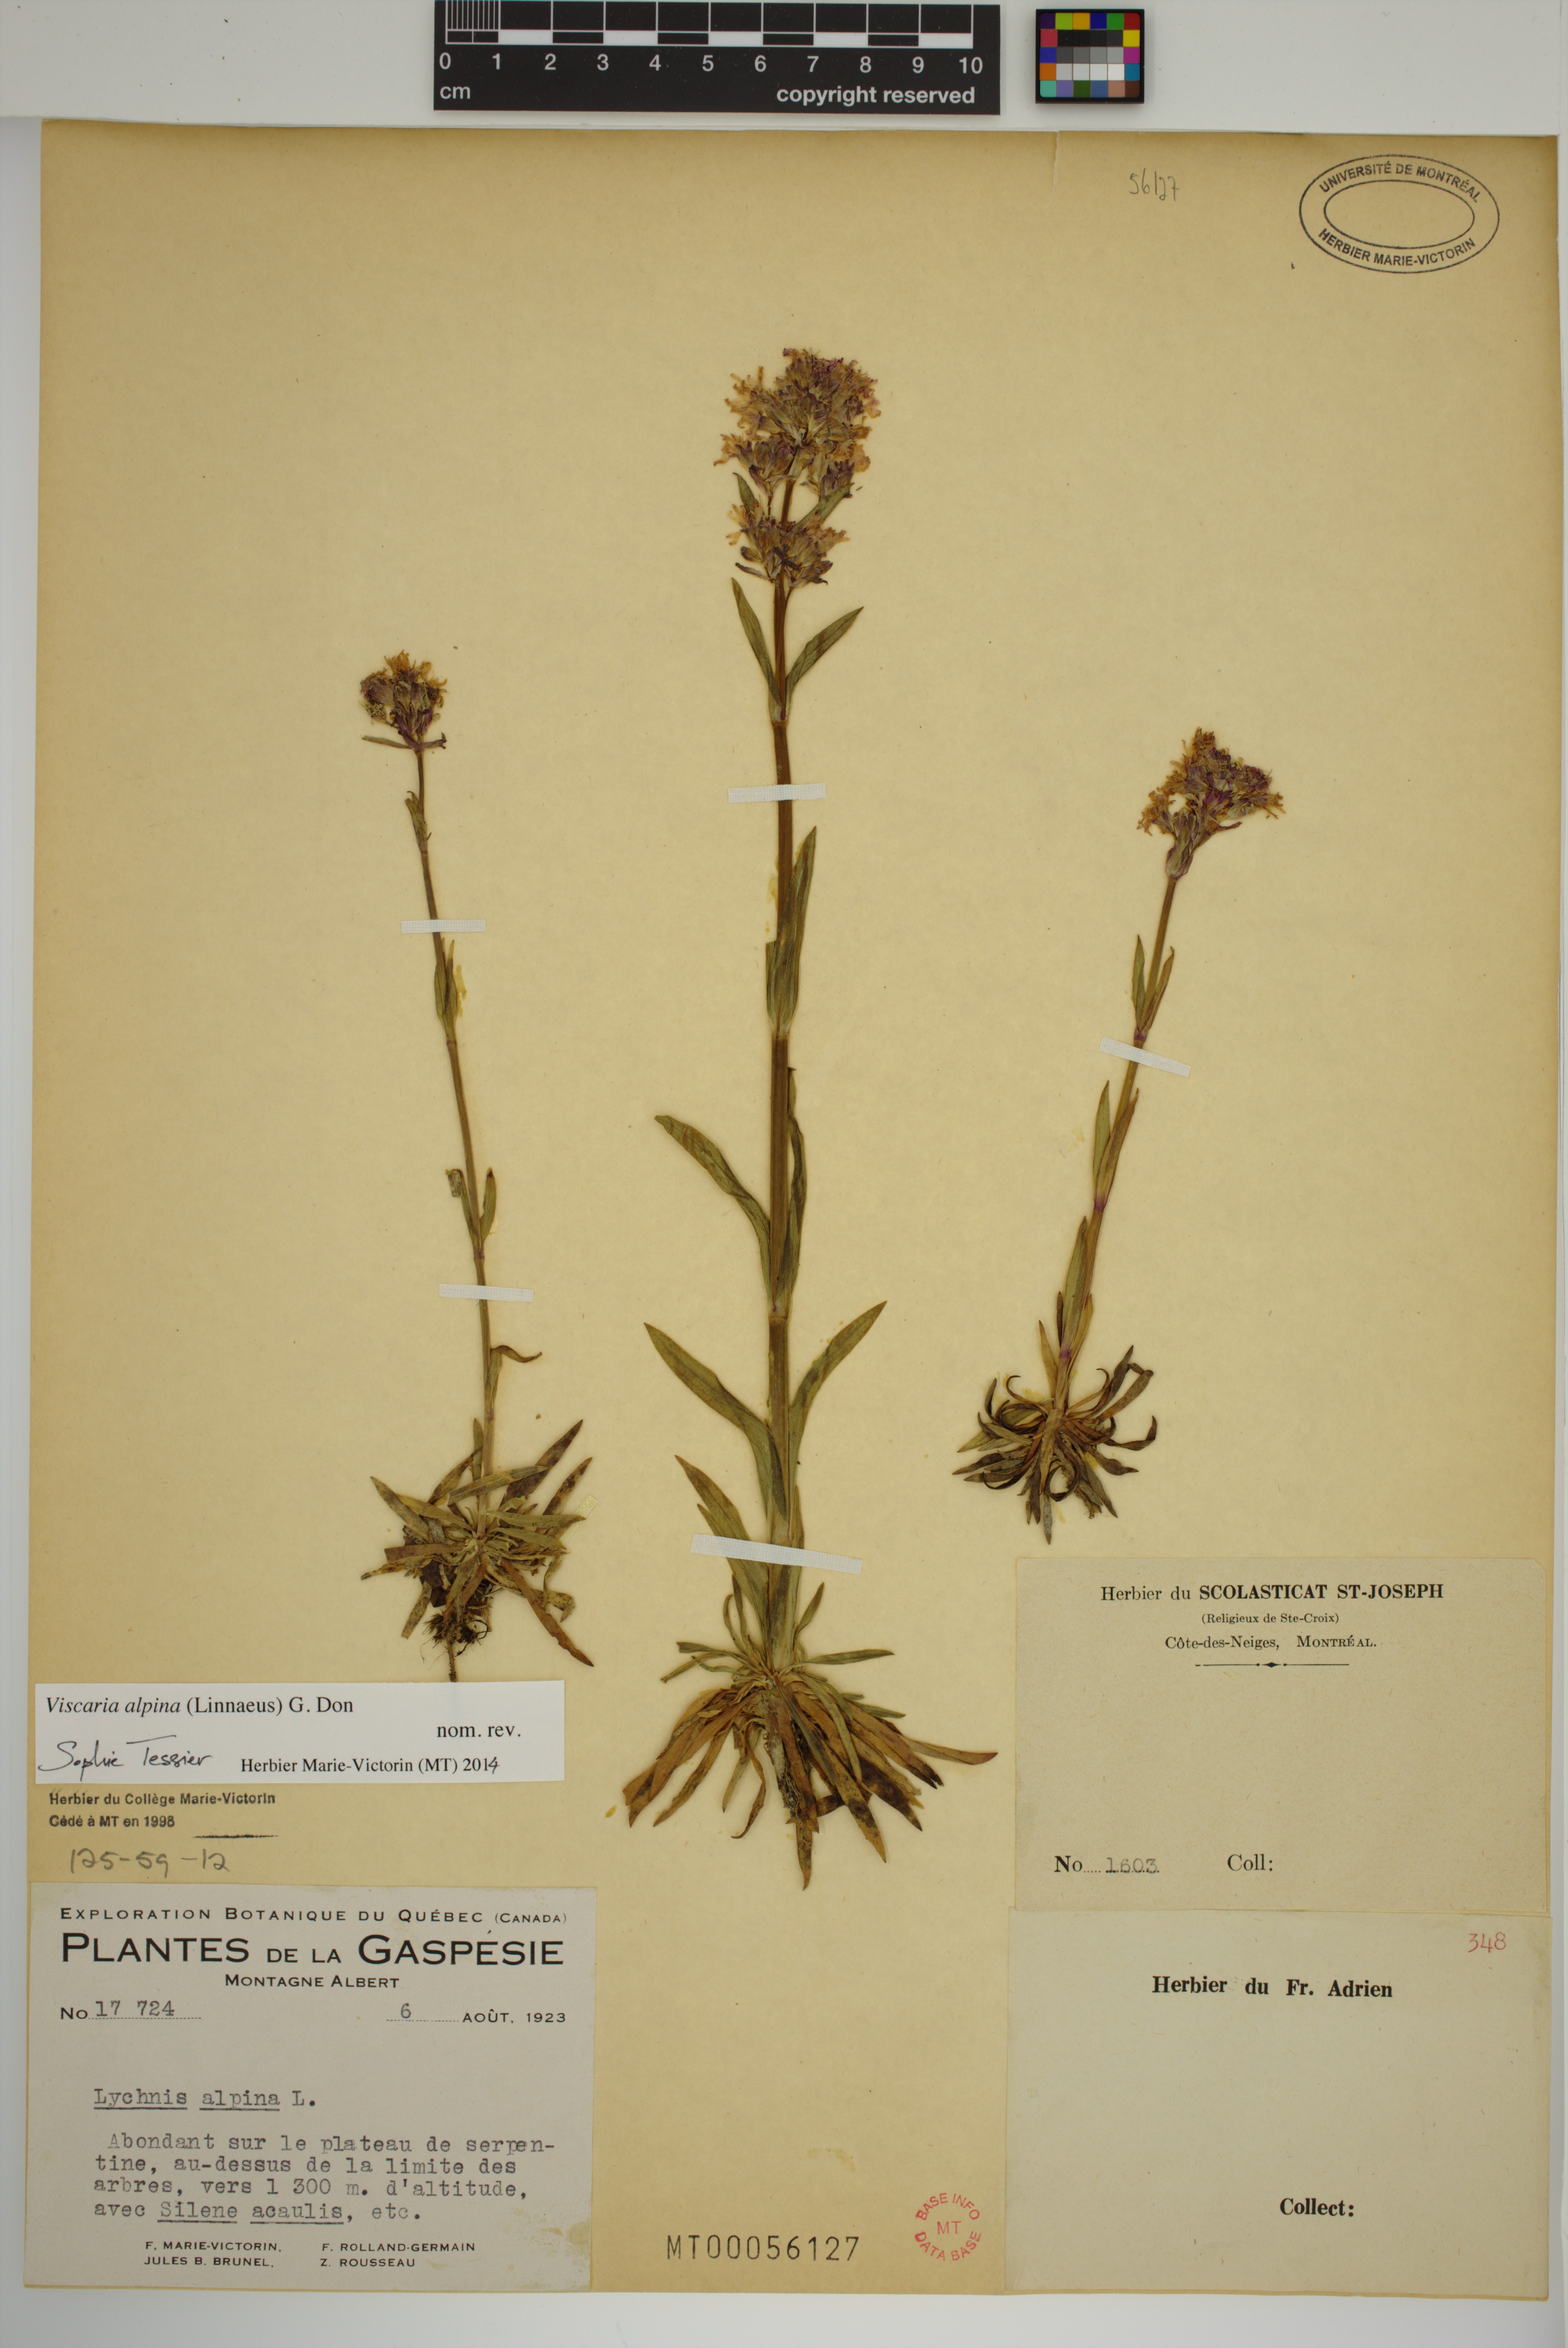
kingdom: Plantae
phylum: Tracheophyta
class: Magnoliopsida
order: Caryophyllales
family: Caryophyllaceae
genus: Viscaria
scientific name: Viscaria alpina
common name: Alpine campion
